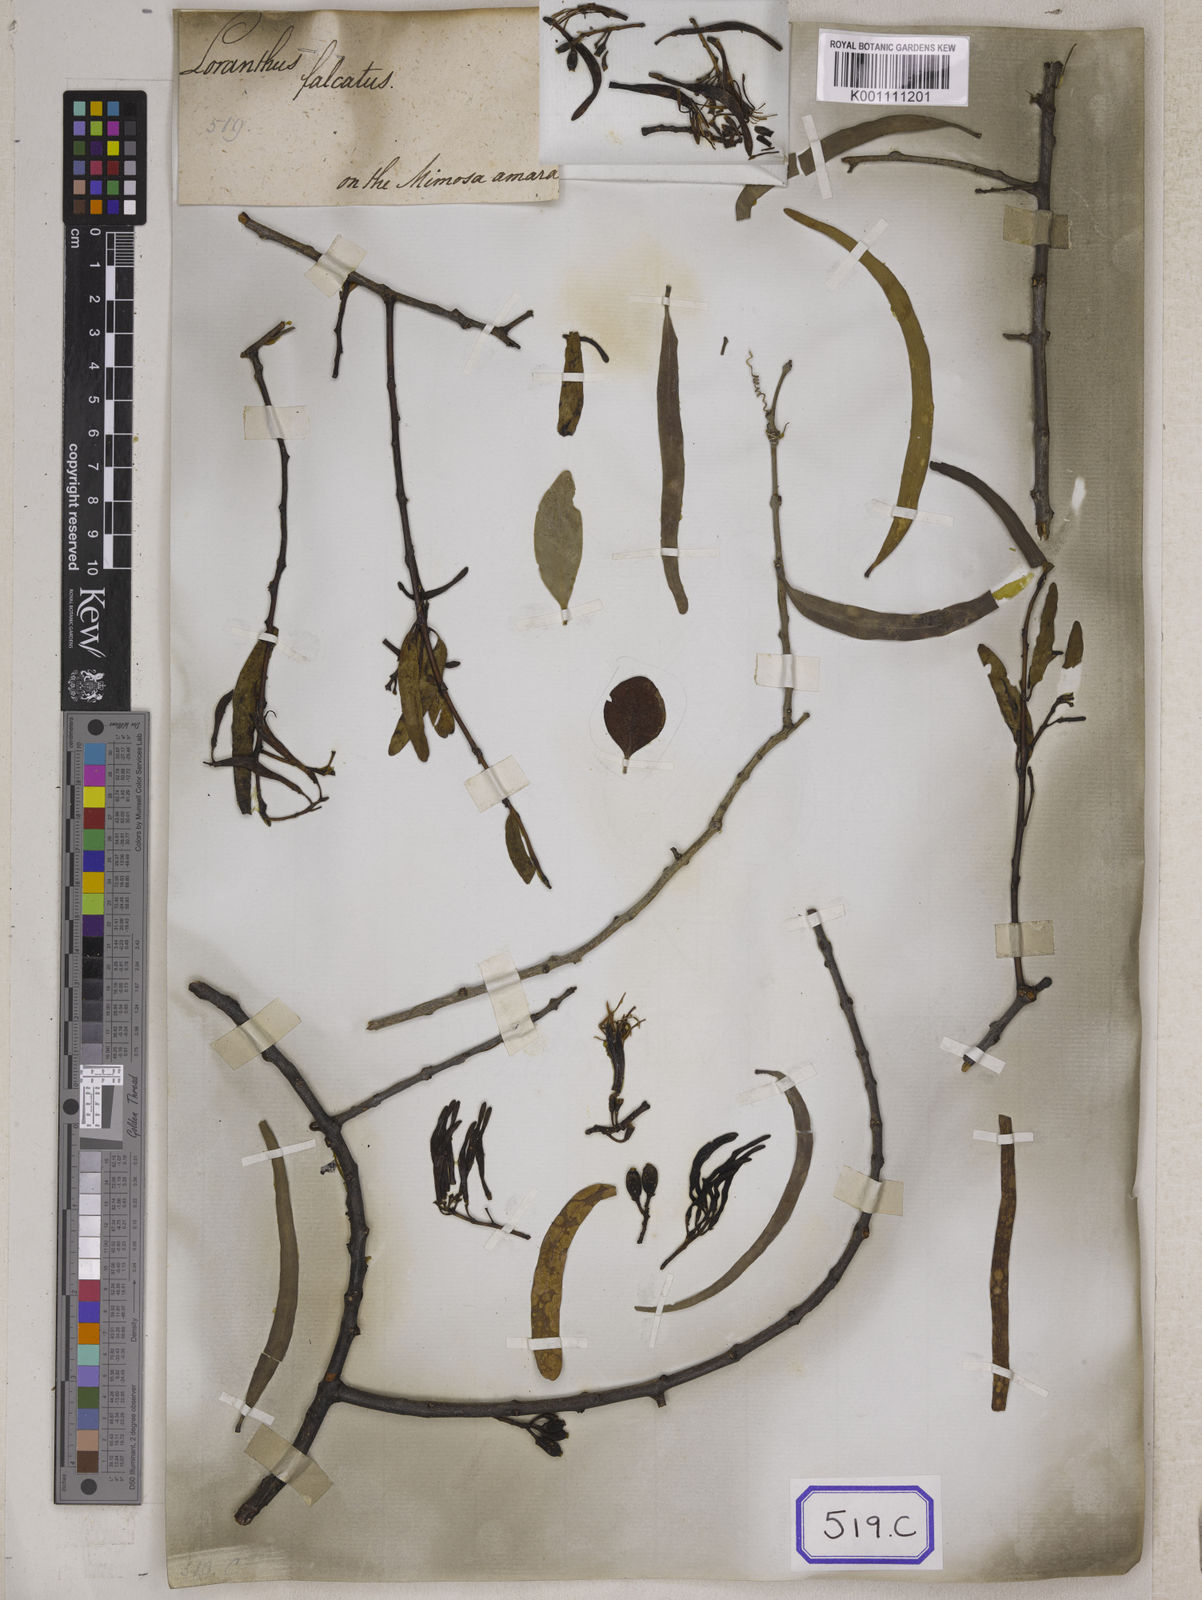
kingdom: Plantae
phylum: Tracheophyta
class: Magnoliopsida
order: Santalales
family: Loranthaceae
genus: Loranthus
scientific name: Loranthus
